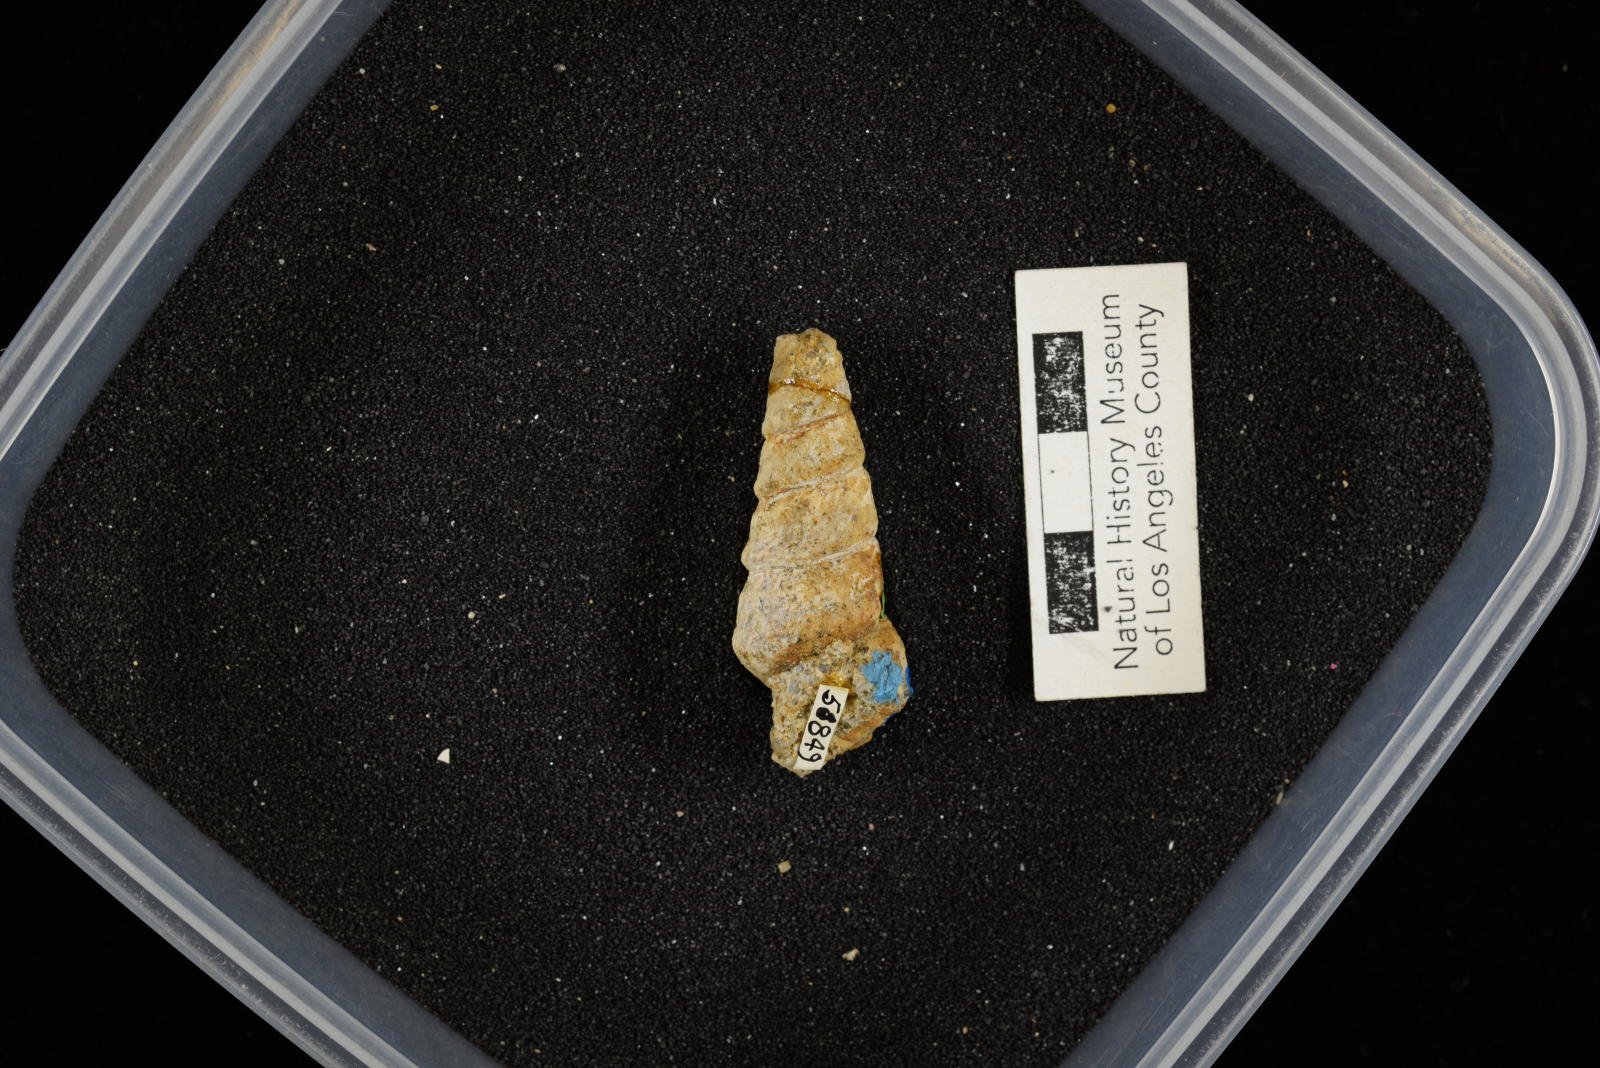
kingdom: Animalia
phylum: Mollusca
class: Gastropoda
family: Turritellidae
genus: Turritella
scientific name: Turritella peninsularis
